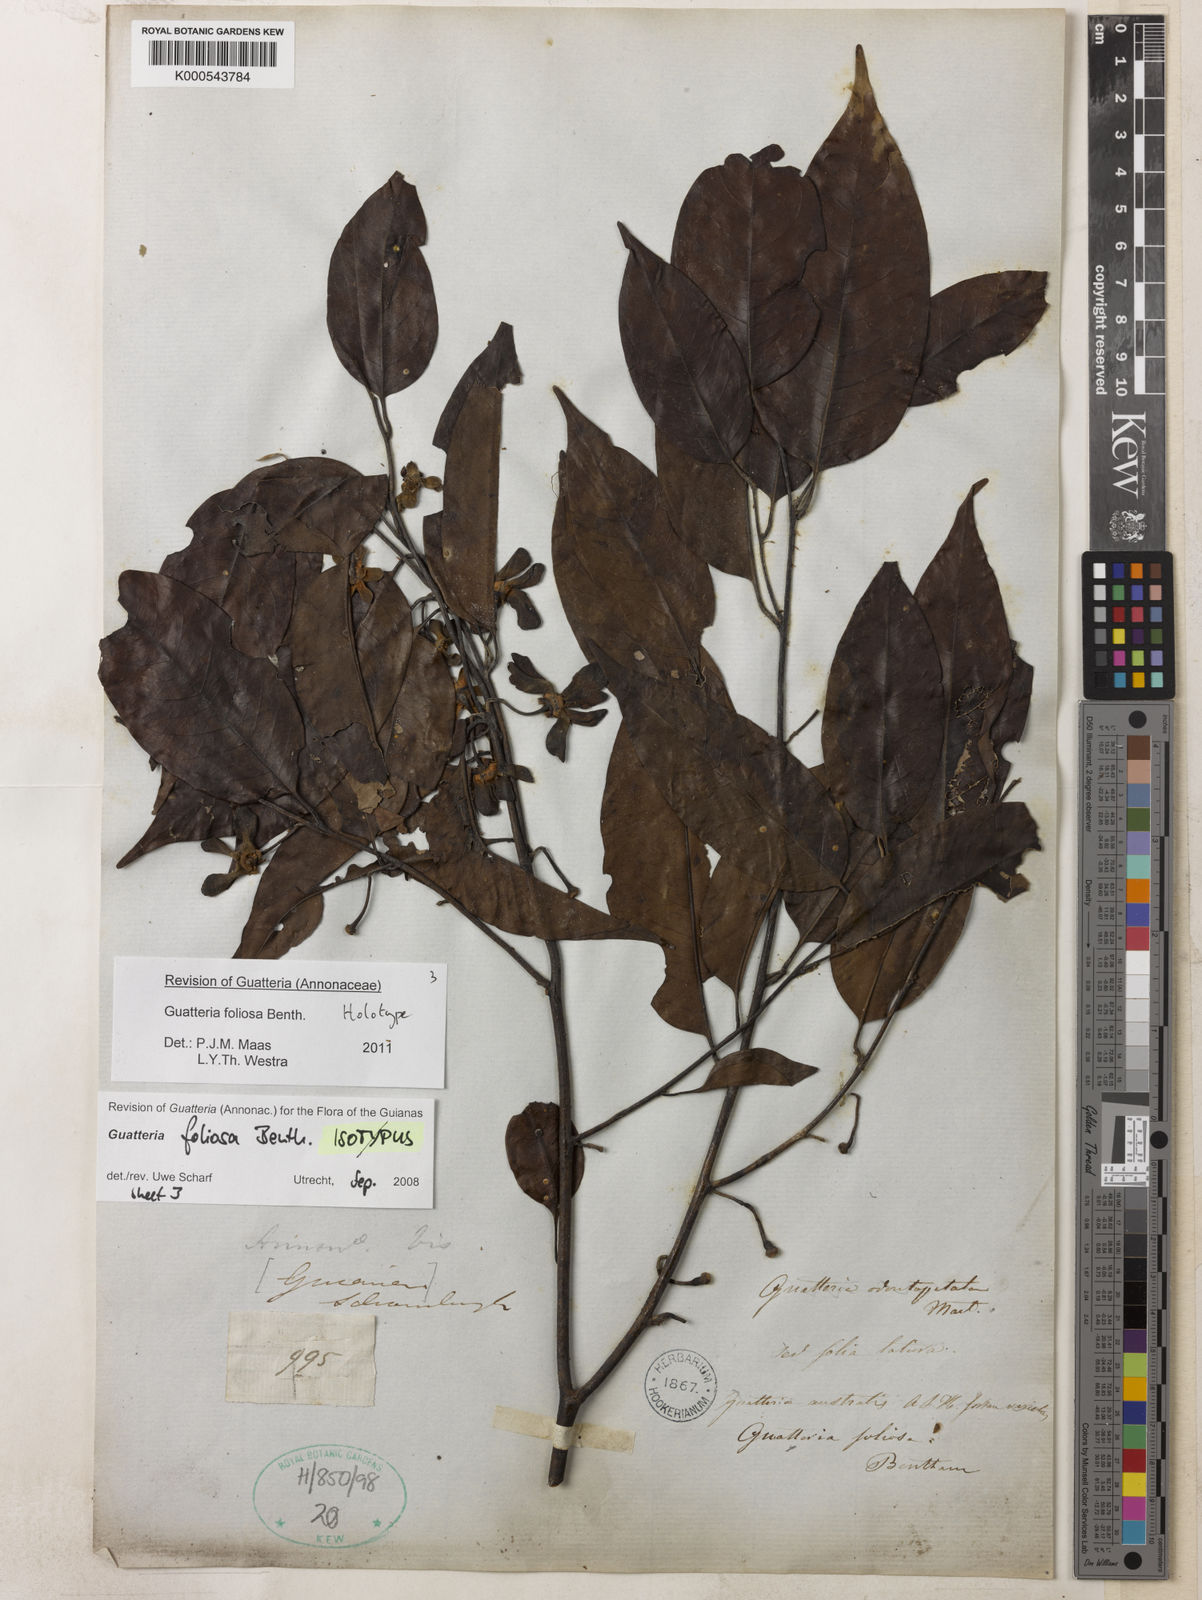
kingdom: Plantae
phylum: Tracheophyta
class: Magnoliopsida
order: Magnoliales
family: Annonaceae
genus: Guatteria
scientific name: Guatteria foliosa
